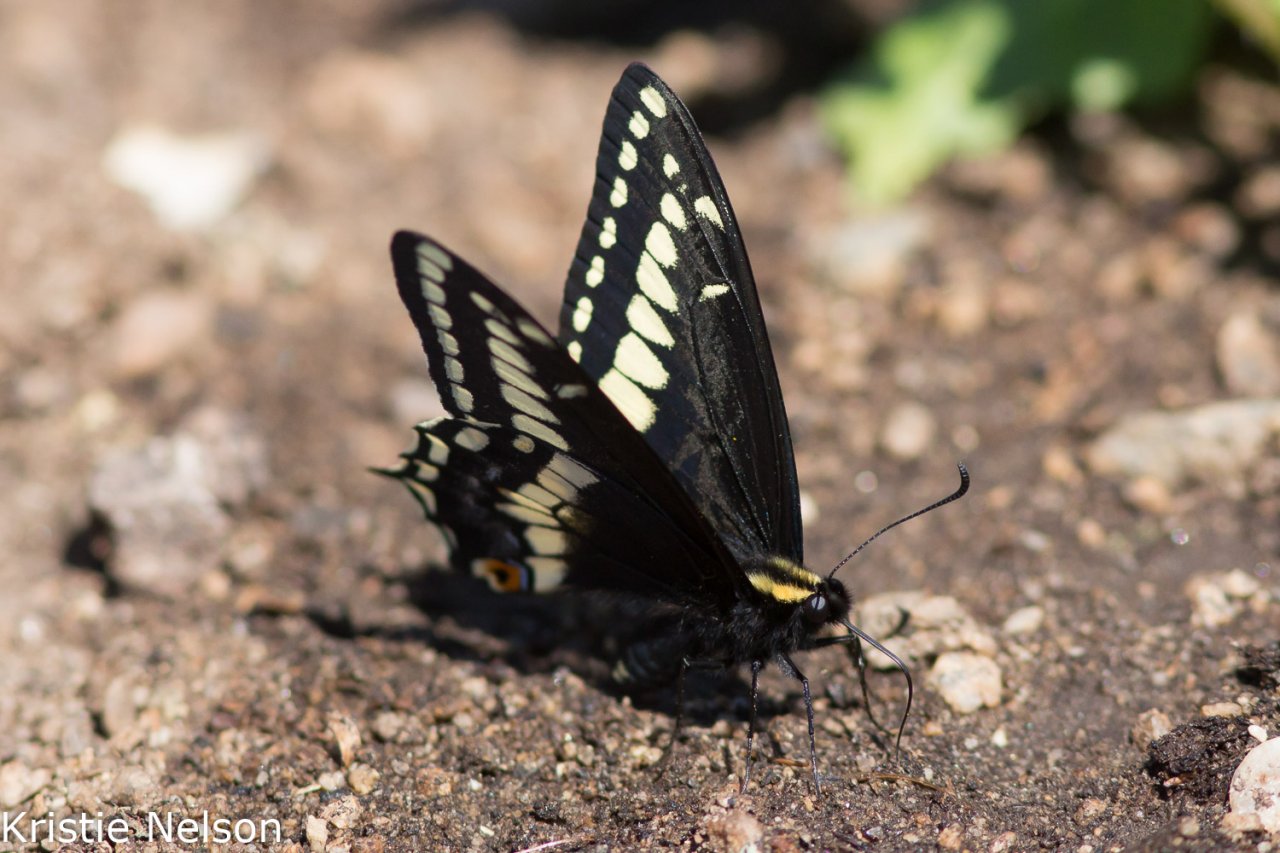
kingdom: Animalia
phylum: Arthropoda
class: Insecta
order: Lepidoptera
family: Papilionidae
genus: Papilio
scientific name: Papilio indra
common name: Indra Swallowtail
